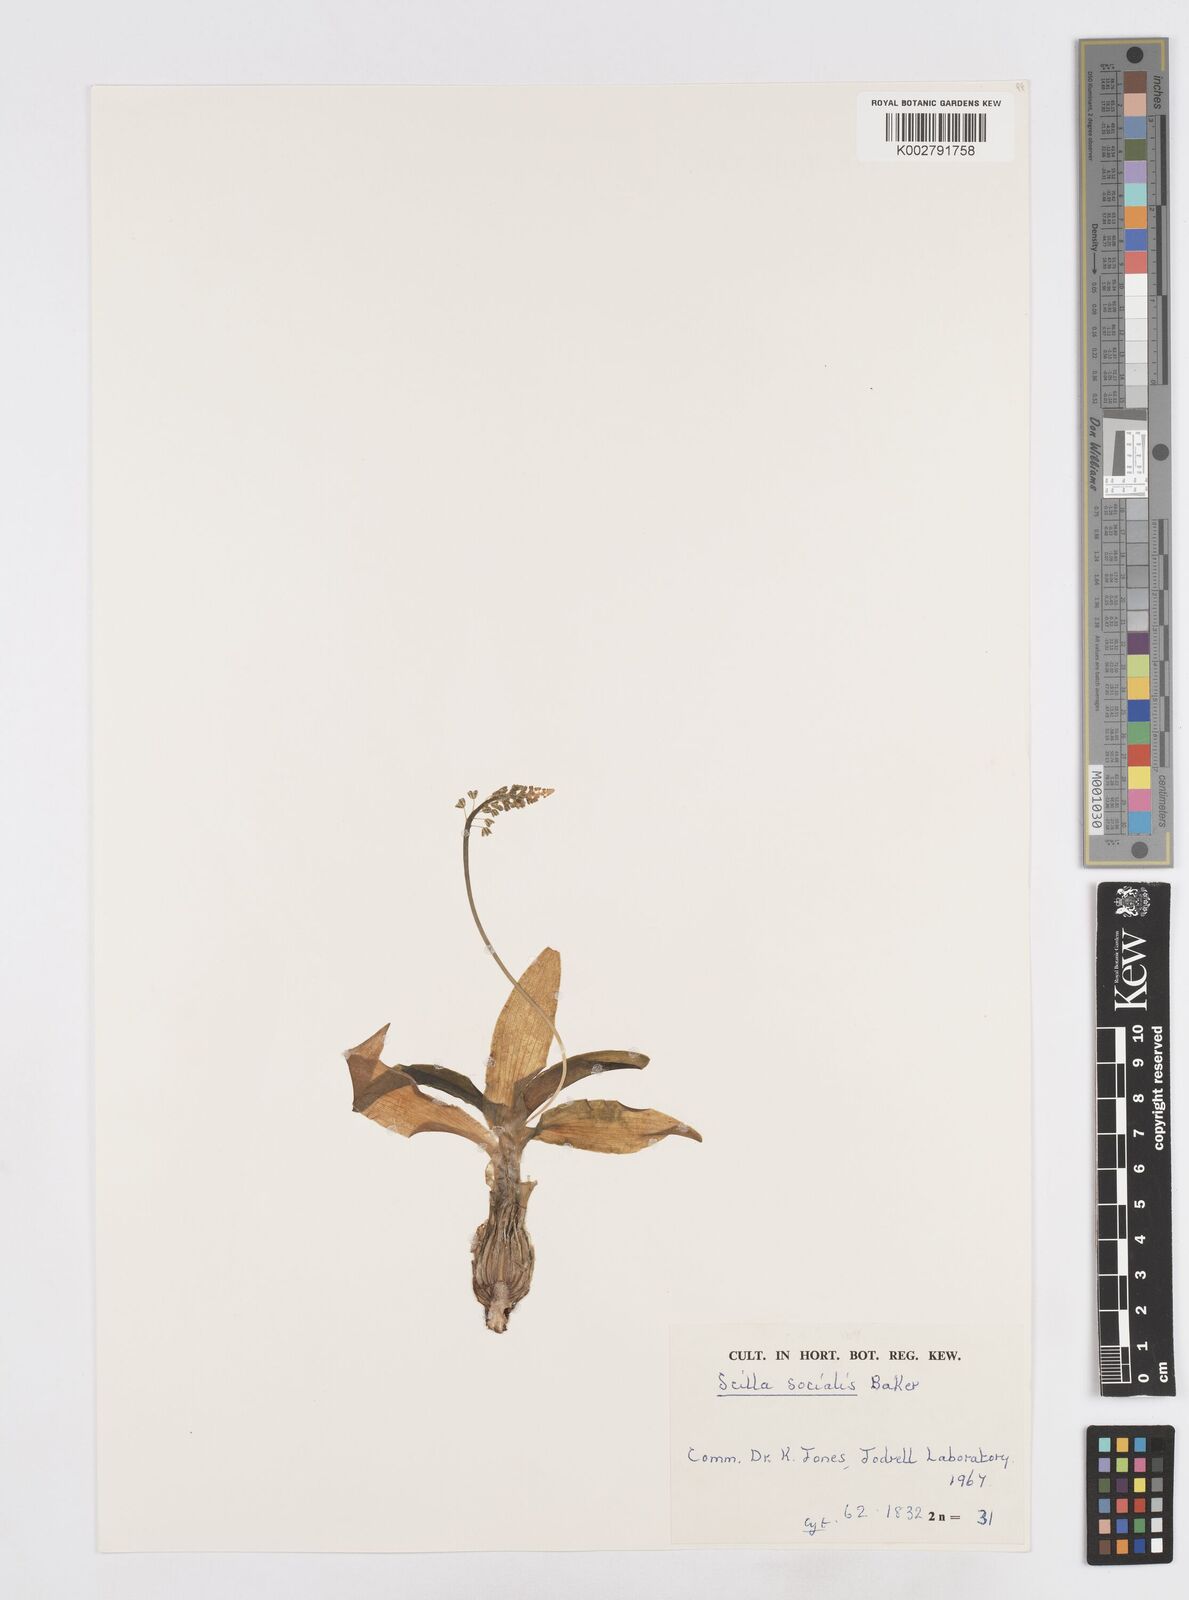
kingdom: Plantae
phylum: Tracheophyta
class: Liliopsida
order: Asparagales
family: Asparagaceae
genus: Ledebouria
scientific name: Ledebouria socialis
